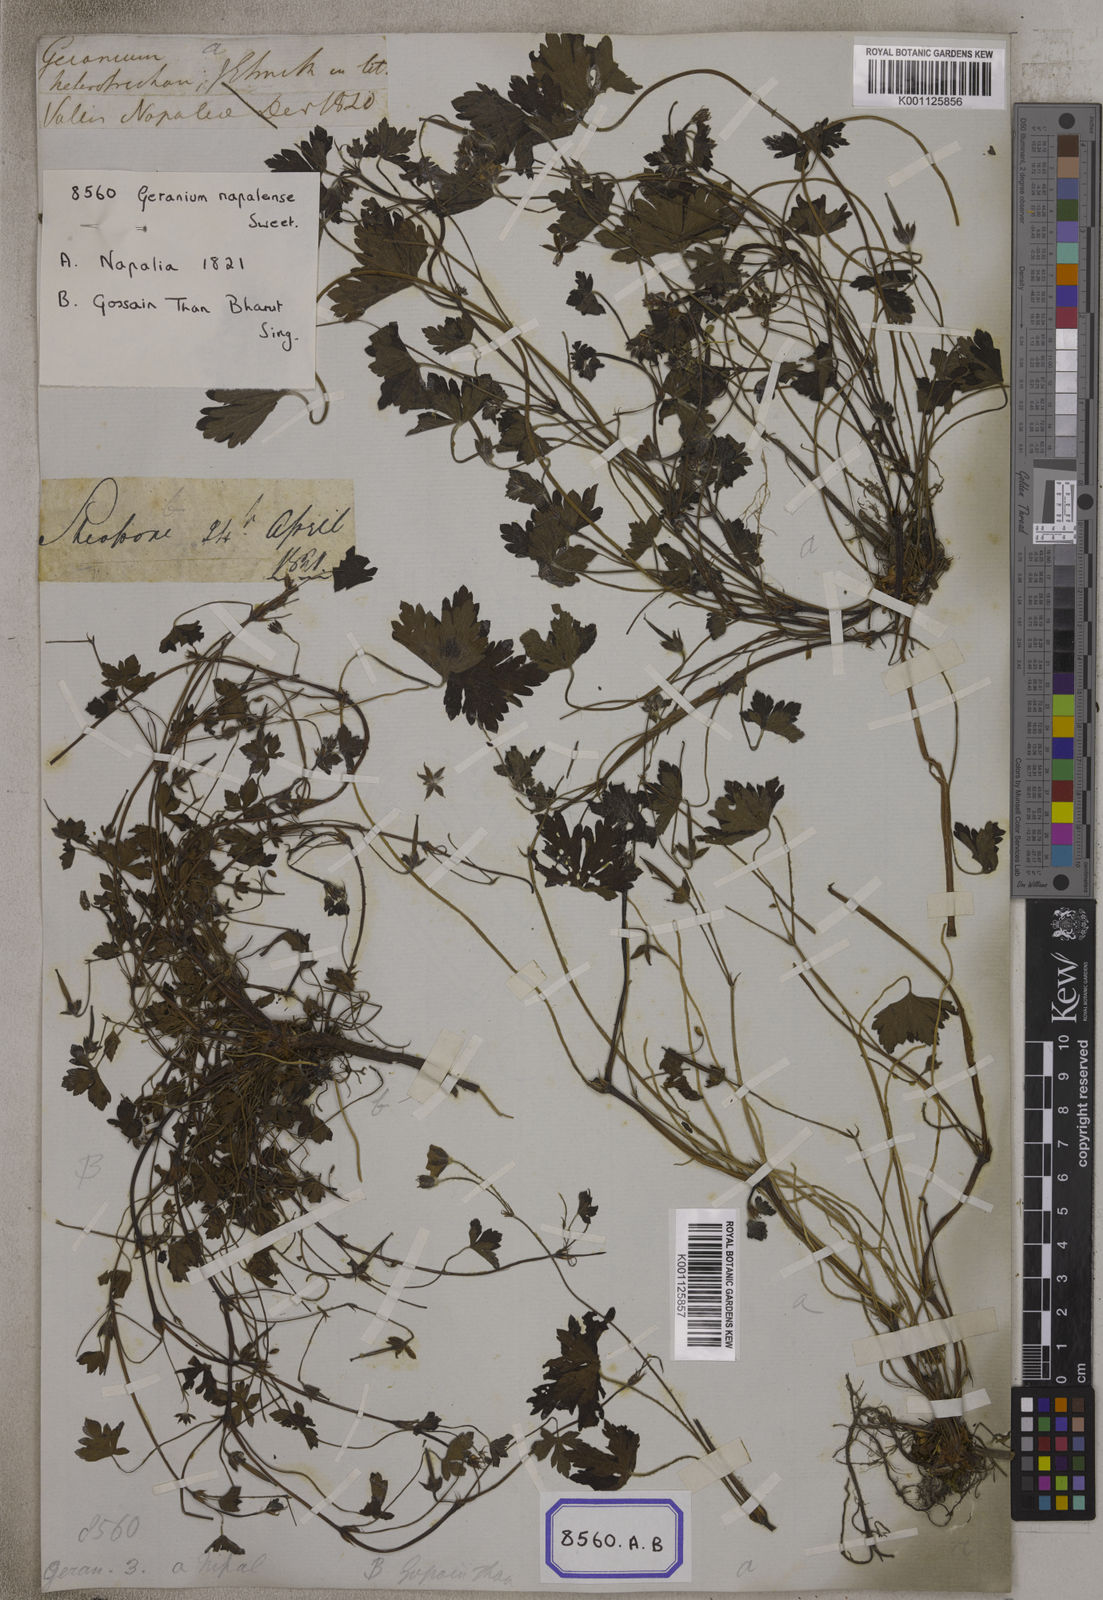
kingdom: Plantae
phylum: Tracheophyta
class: Magnoliopsida
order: Geraniales
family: Geraniaceae
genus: Geranium
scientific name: Geranium nepalense
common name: Nepalese crane's-bill
